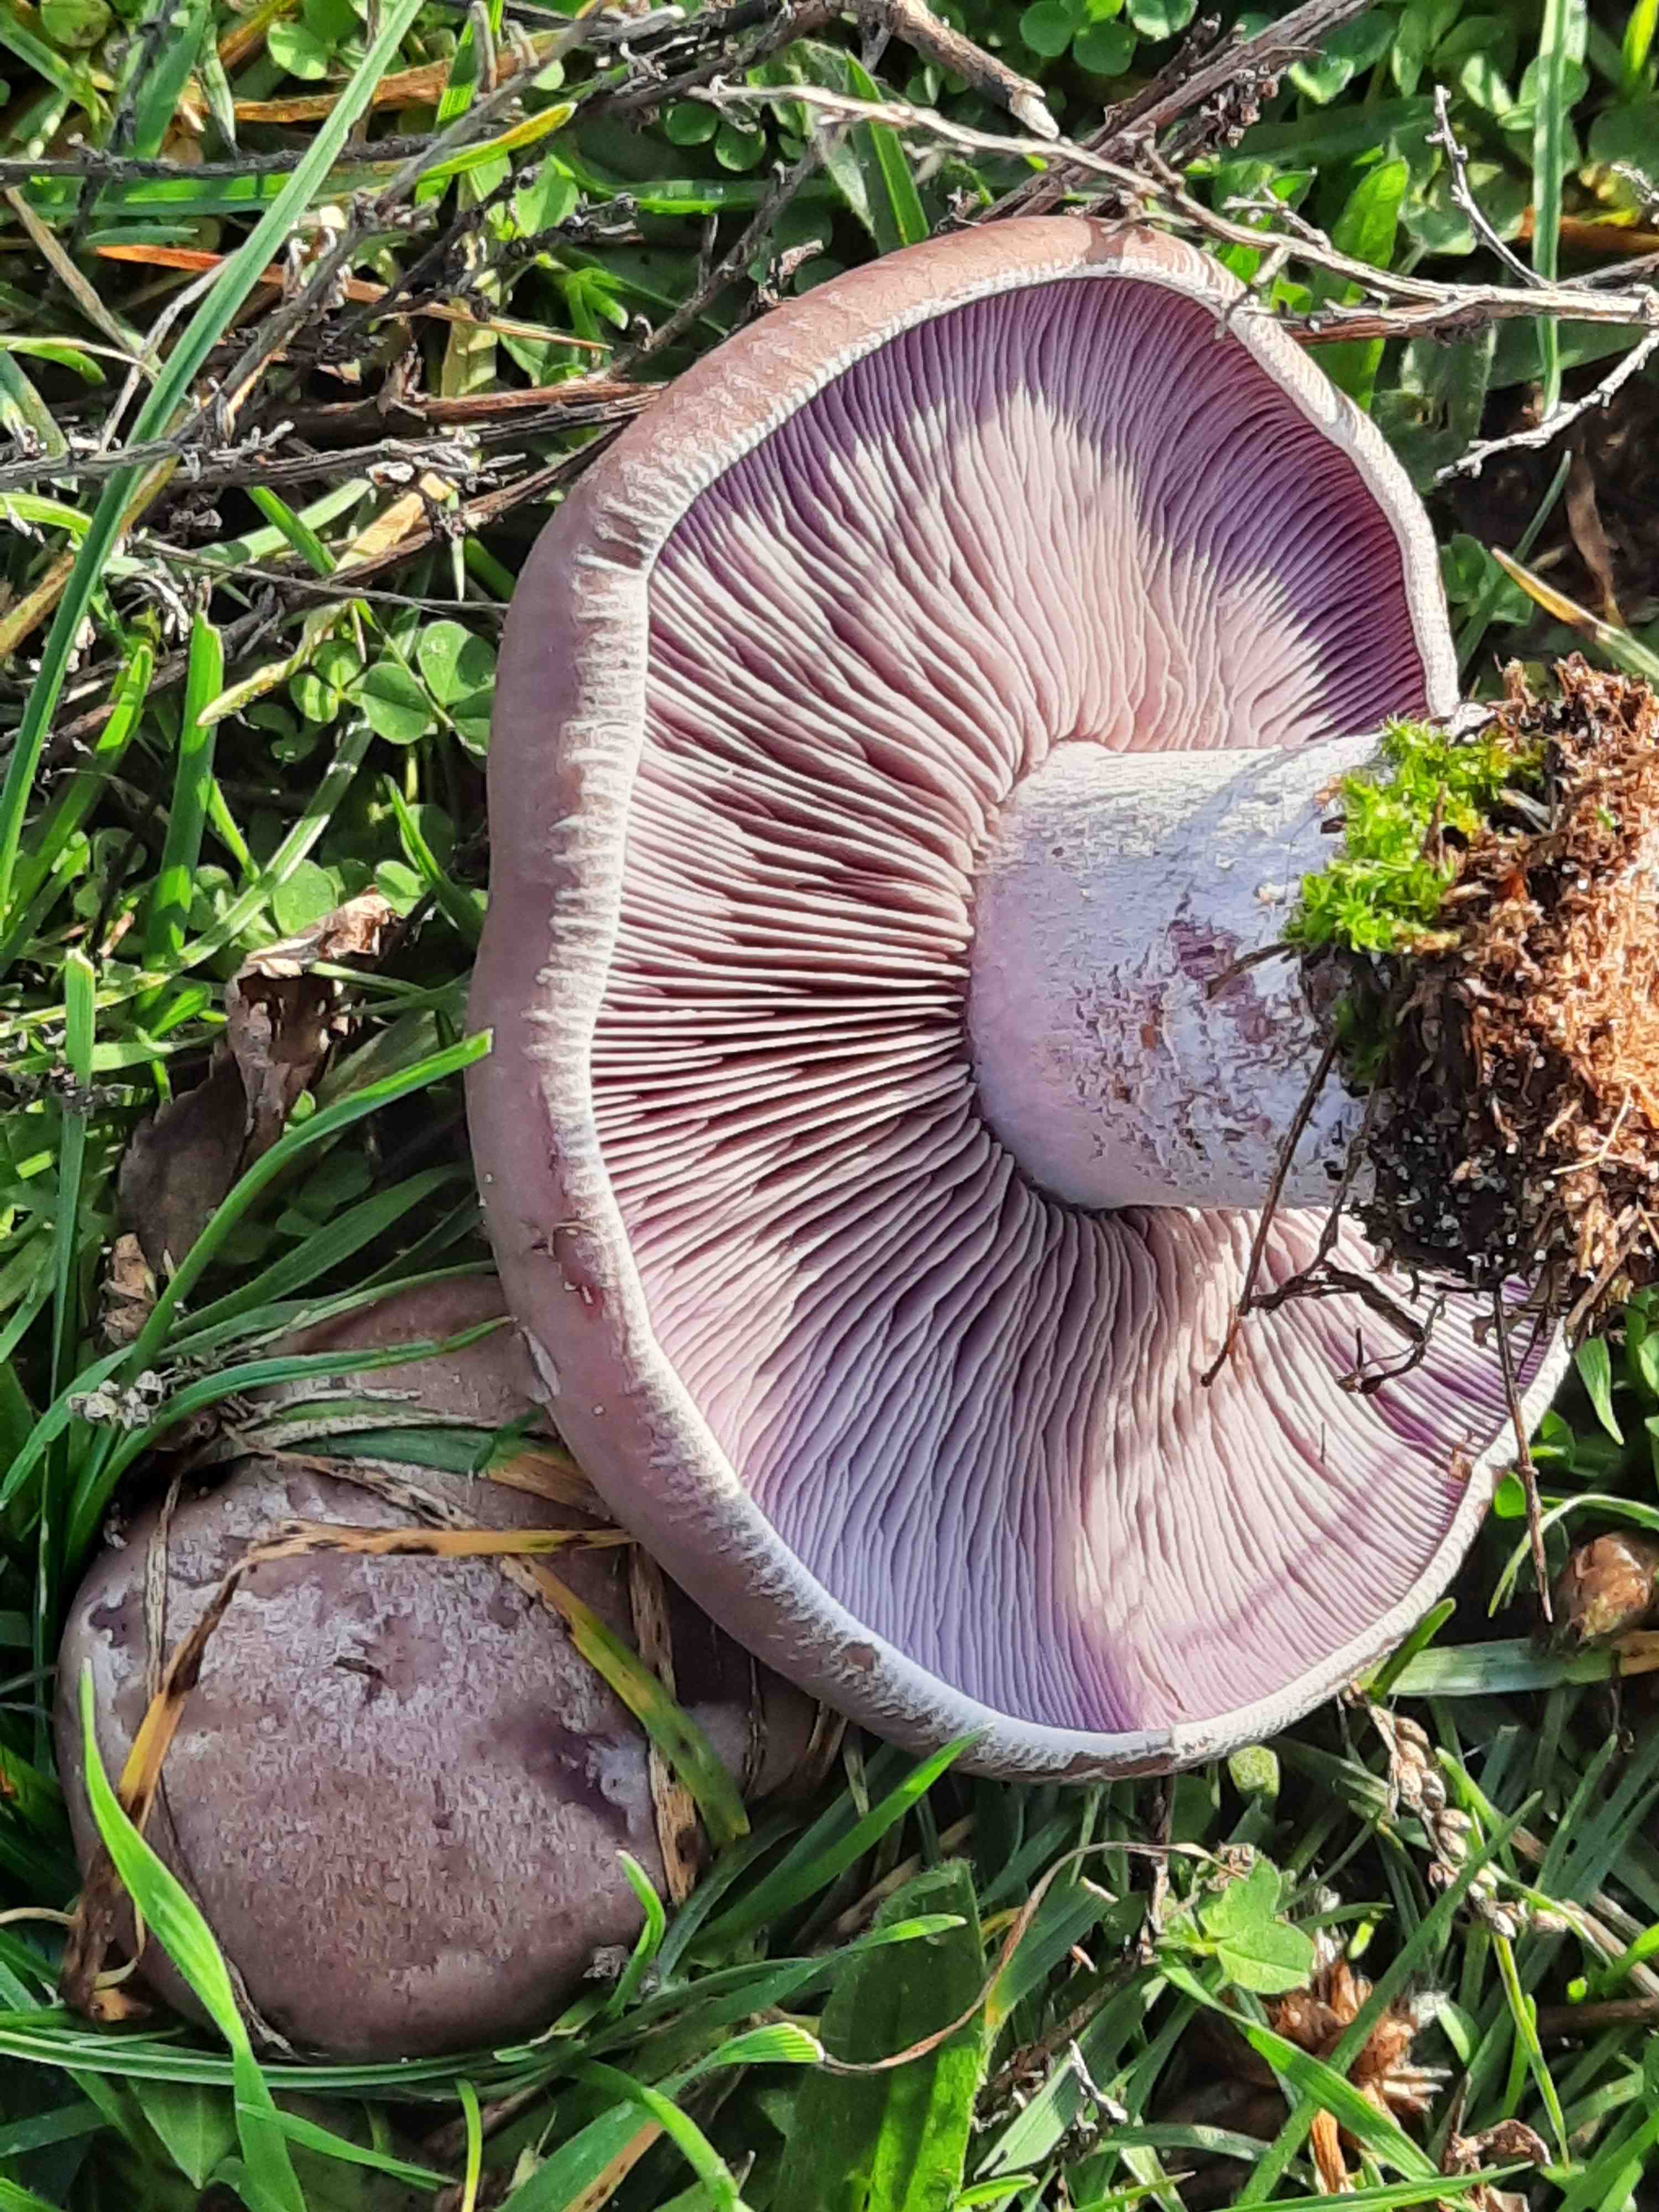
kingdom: Fungi
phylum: Basidiomycota
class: Agaricomycetes
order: Agaricales
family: Tricholomataceae
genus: Lepista
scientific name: Lepista nuda
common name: violet hekseringshat
